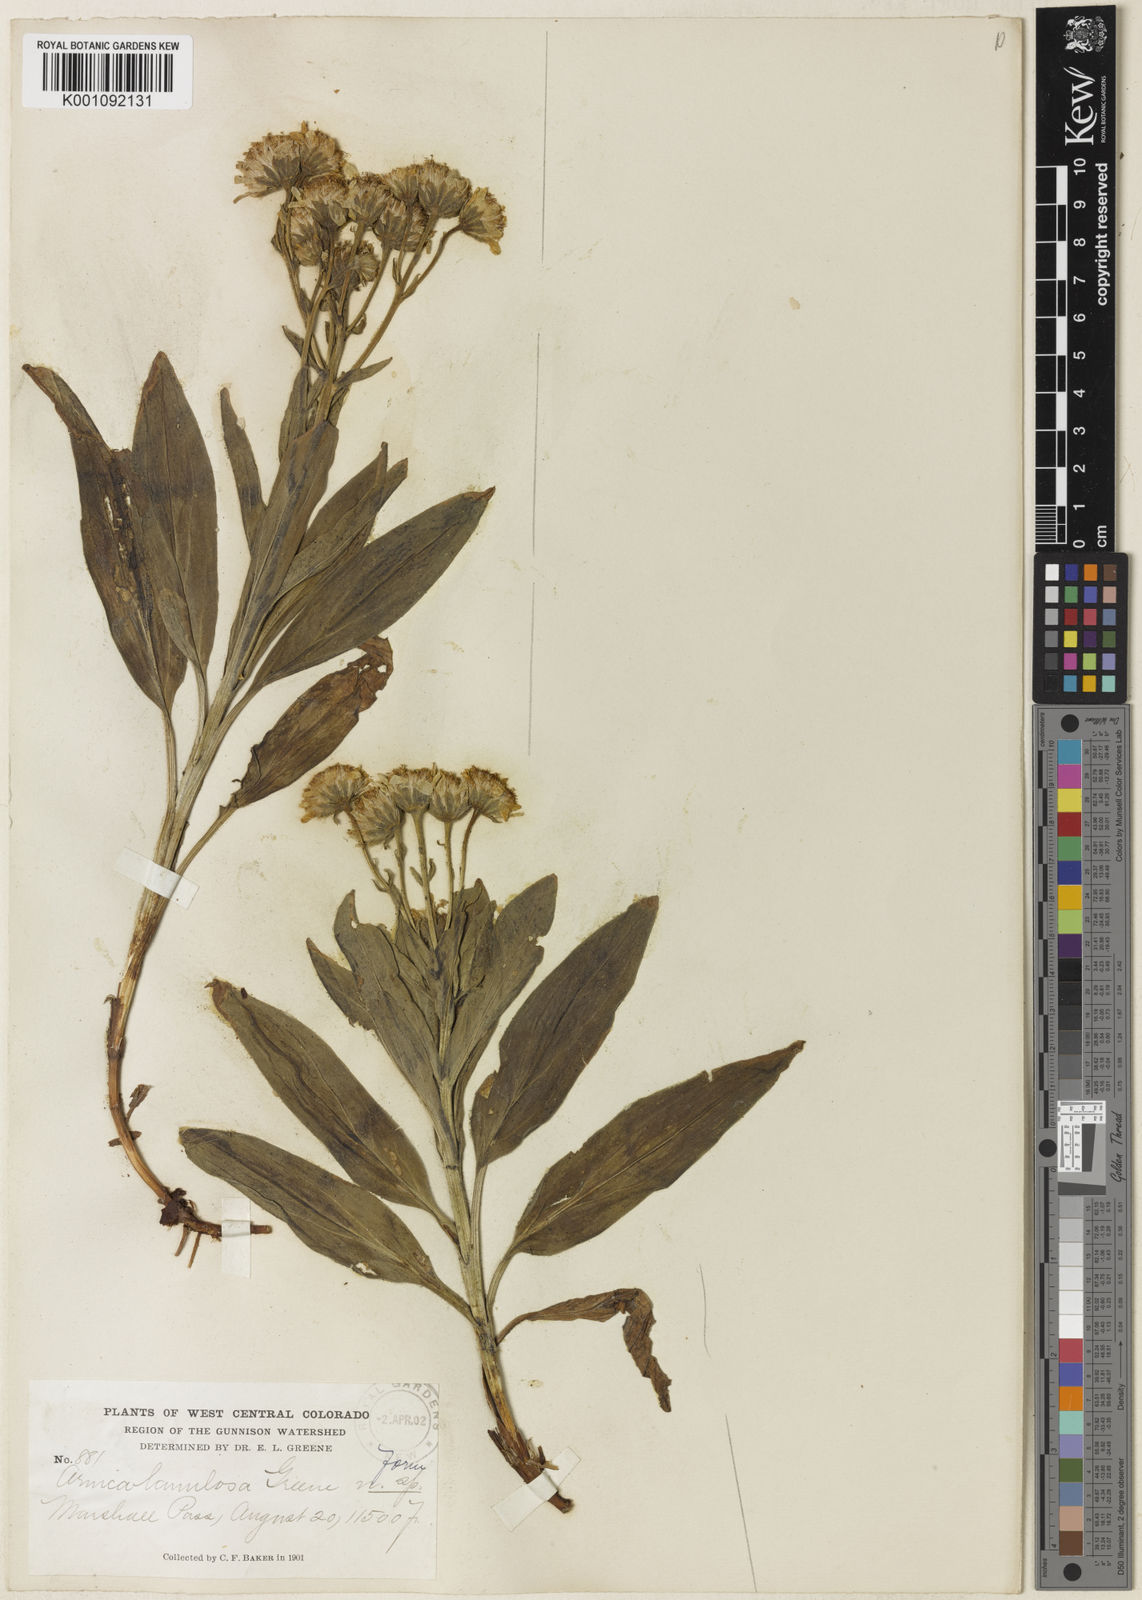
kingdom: Plantae
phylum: Tracheophyta
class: Magnoliopsida
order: Asterales
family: Asteraceae
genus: Arnica
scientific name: Arnica chamissonis
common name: Leafy arnica
